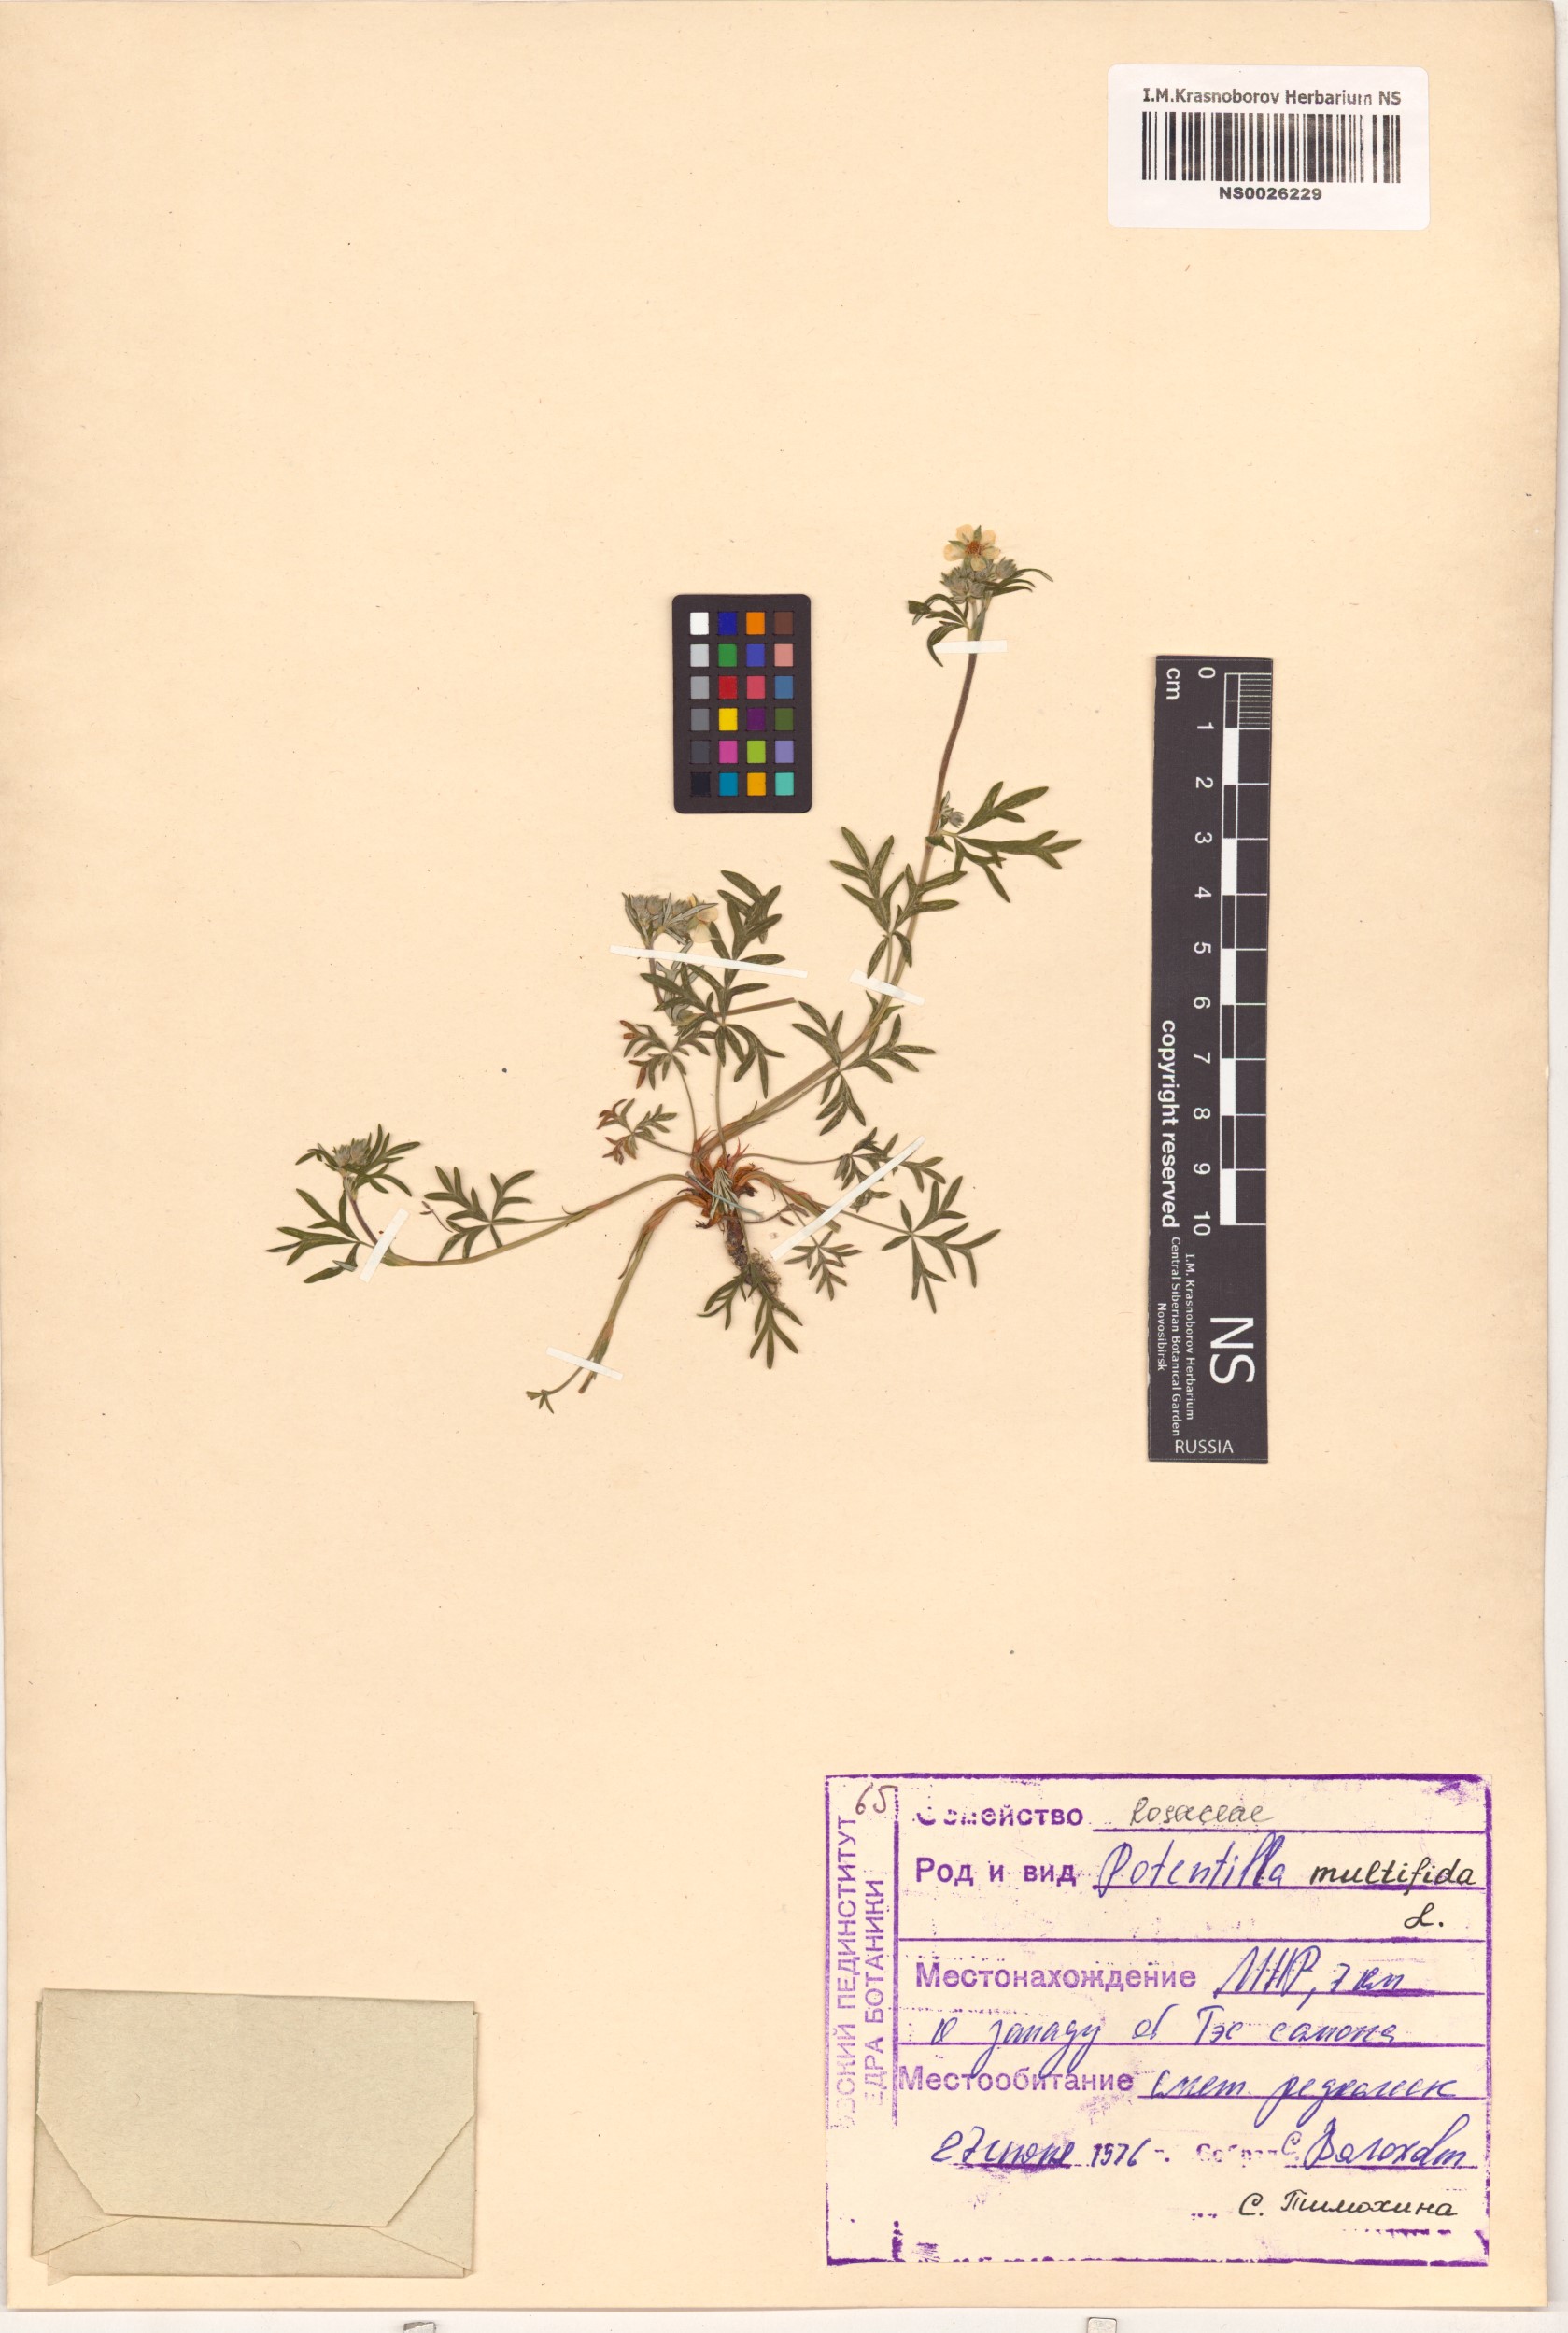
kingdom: Plantae
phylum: Tracheophyta
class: Magnoliopsida
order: Rosales
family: Rosaceae
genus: Potentilla
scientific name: Potentilla multifida
